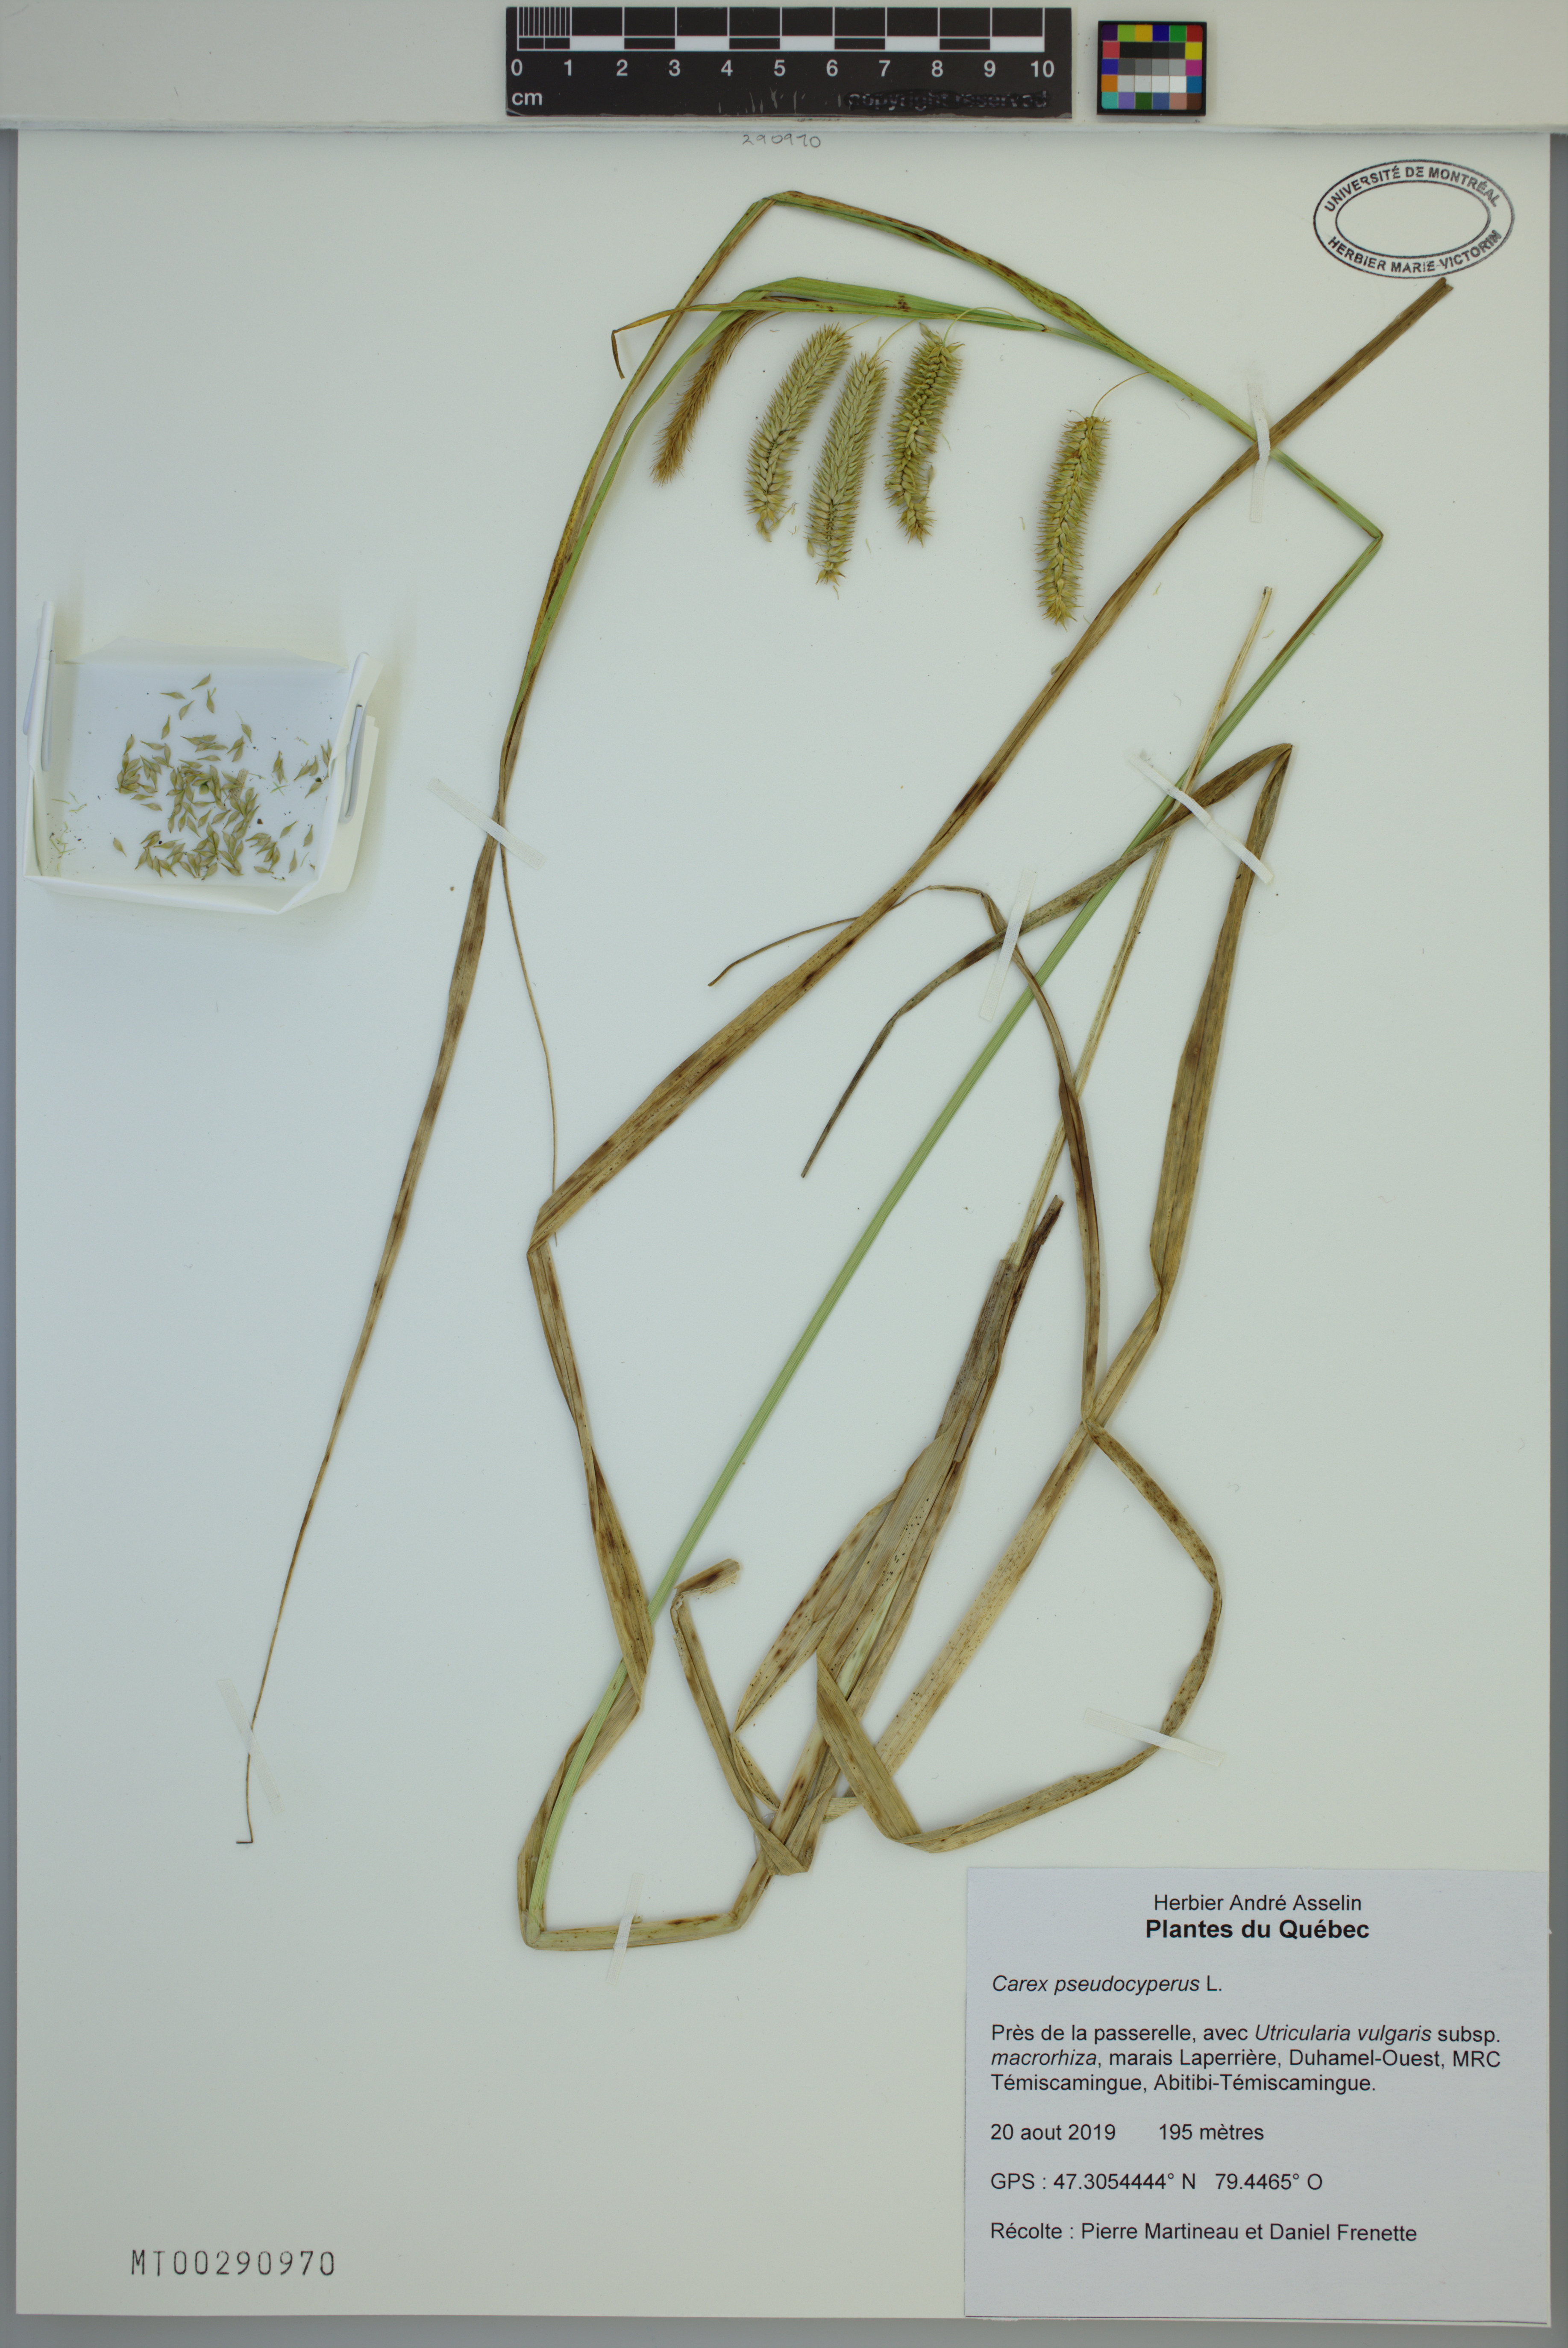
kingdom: Plantae
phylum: Tracheophyta
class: Liliopsida
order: Poales
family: Cyperaceae
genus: Carex
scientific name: Carex pseudocyperus
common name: Cyperus sedge
